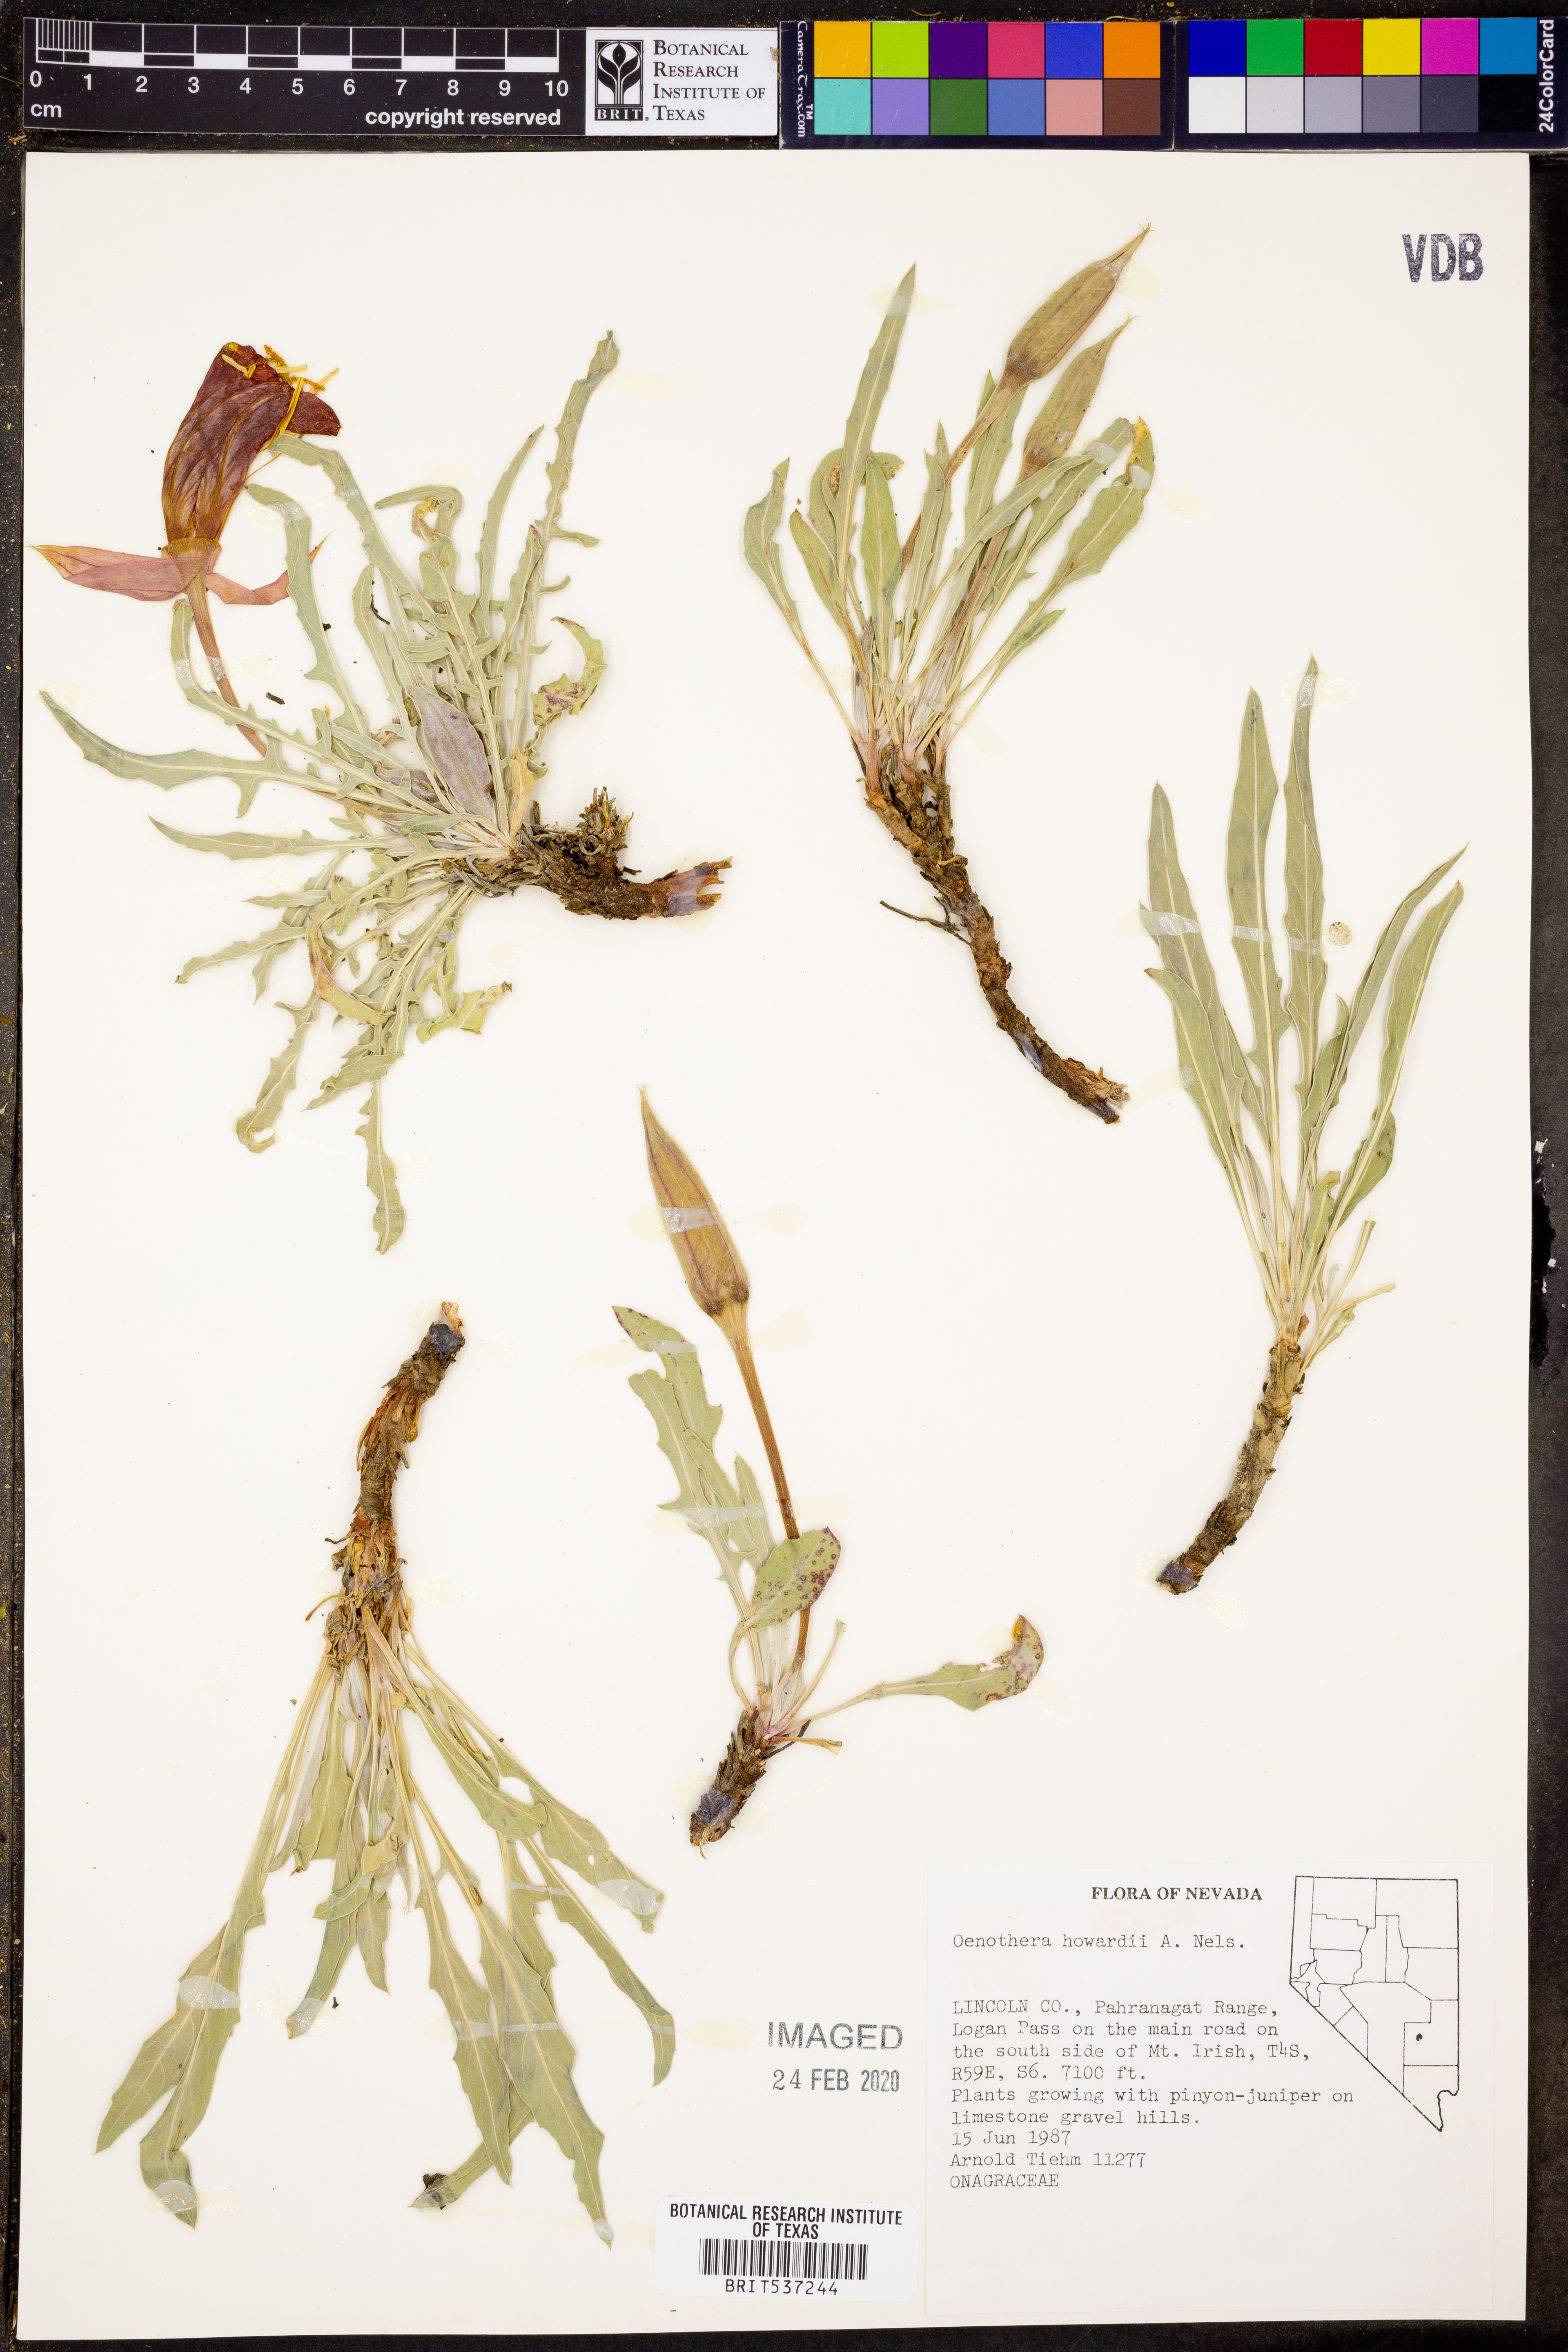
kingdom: Plantae
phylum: Tracheophyta
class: Magnoliopsida
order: Myrtales
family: Onagraceae
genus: Oenothera
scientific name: Oenothera howardii
